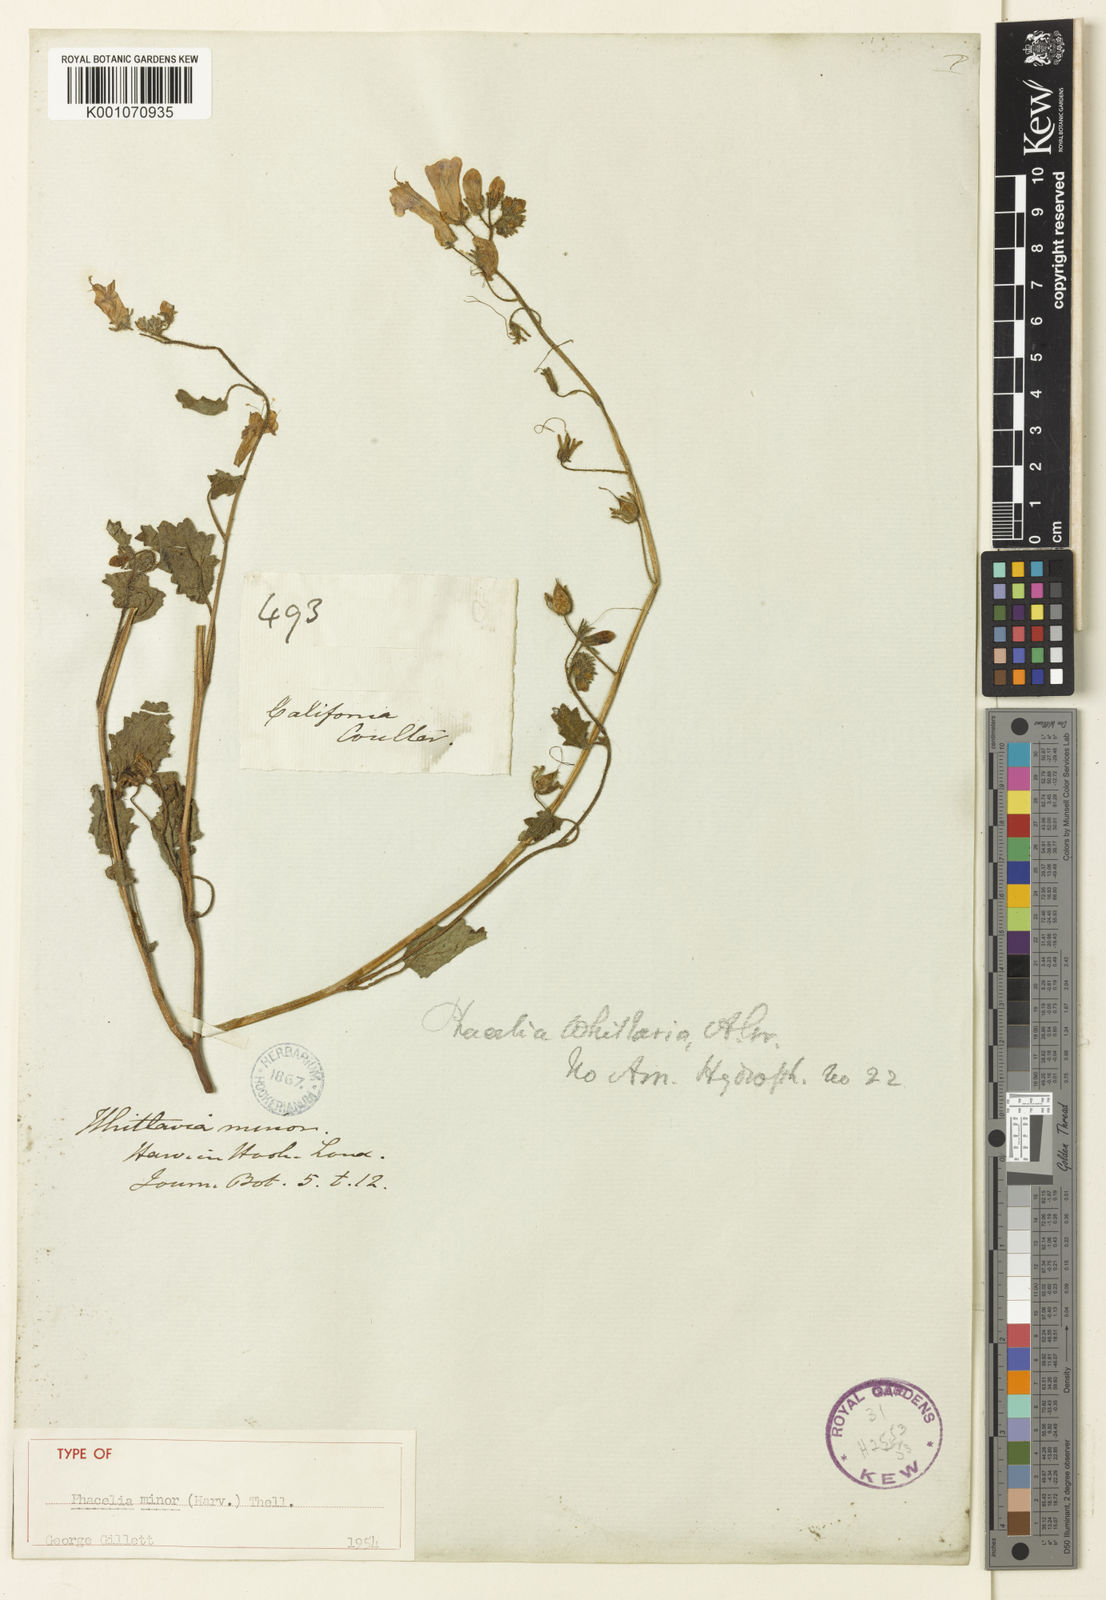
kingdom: Plantae
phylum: Tracheophyta
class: Magnoliopsida
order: Boraginales
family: Hydrophyllaceae
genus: Phacelia
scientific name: Phacelia
